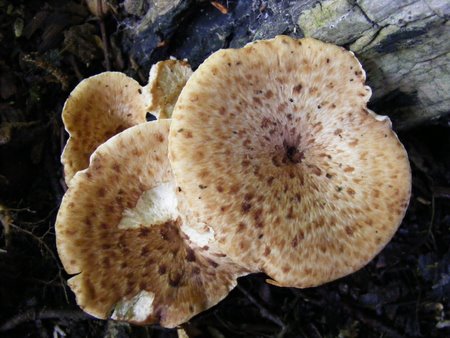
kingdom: Fungi
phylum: Basidiomycota
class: Agaricomycetes
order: Polyporales
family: Polyporaceae
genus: Cerioporus
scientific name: Cerioporus squamosus
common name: skællet stilkporesvamp
